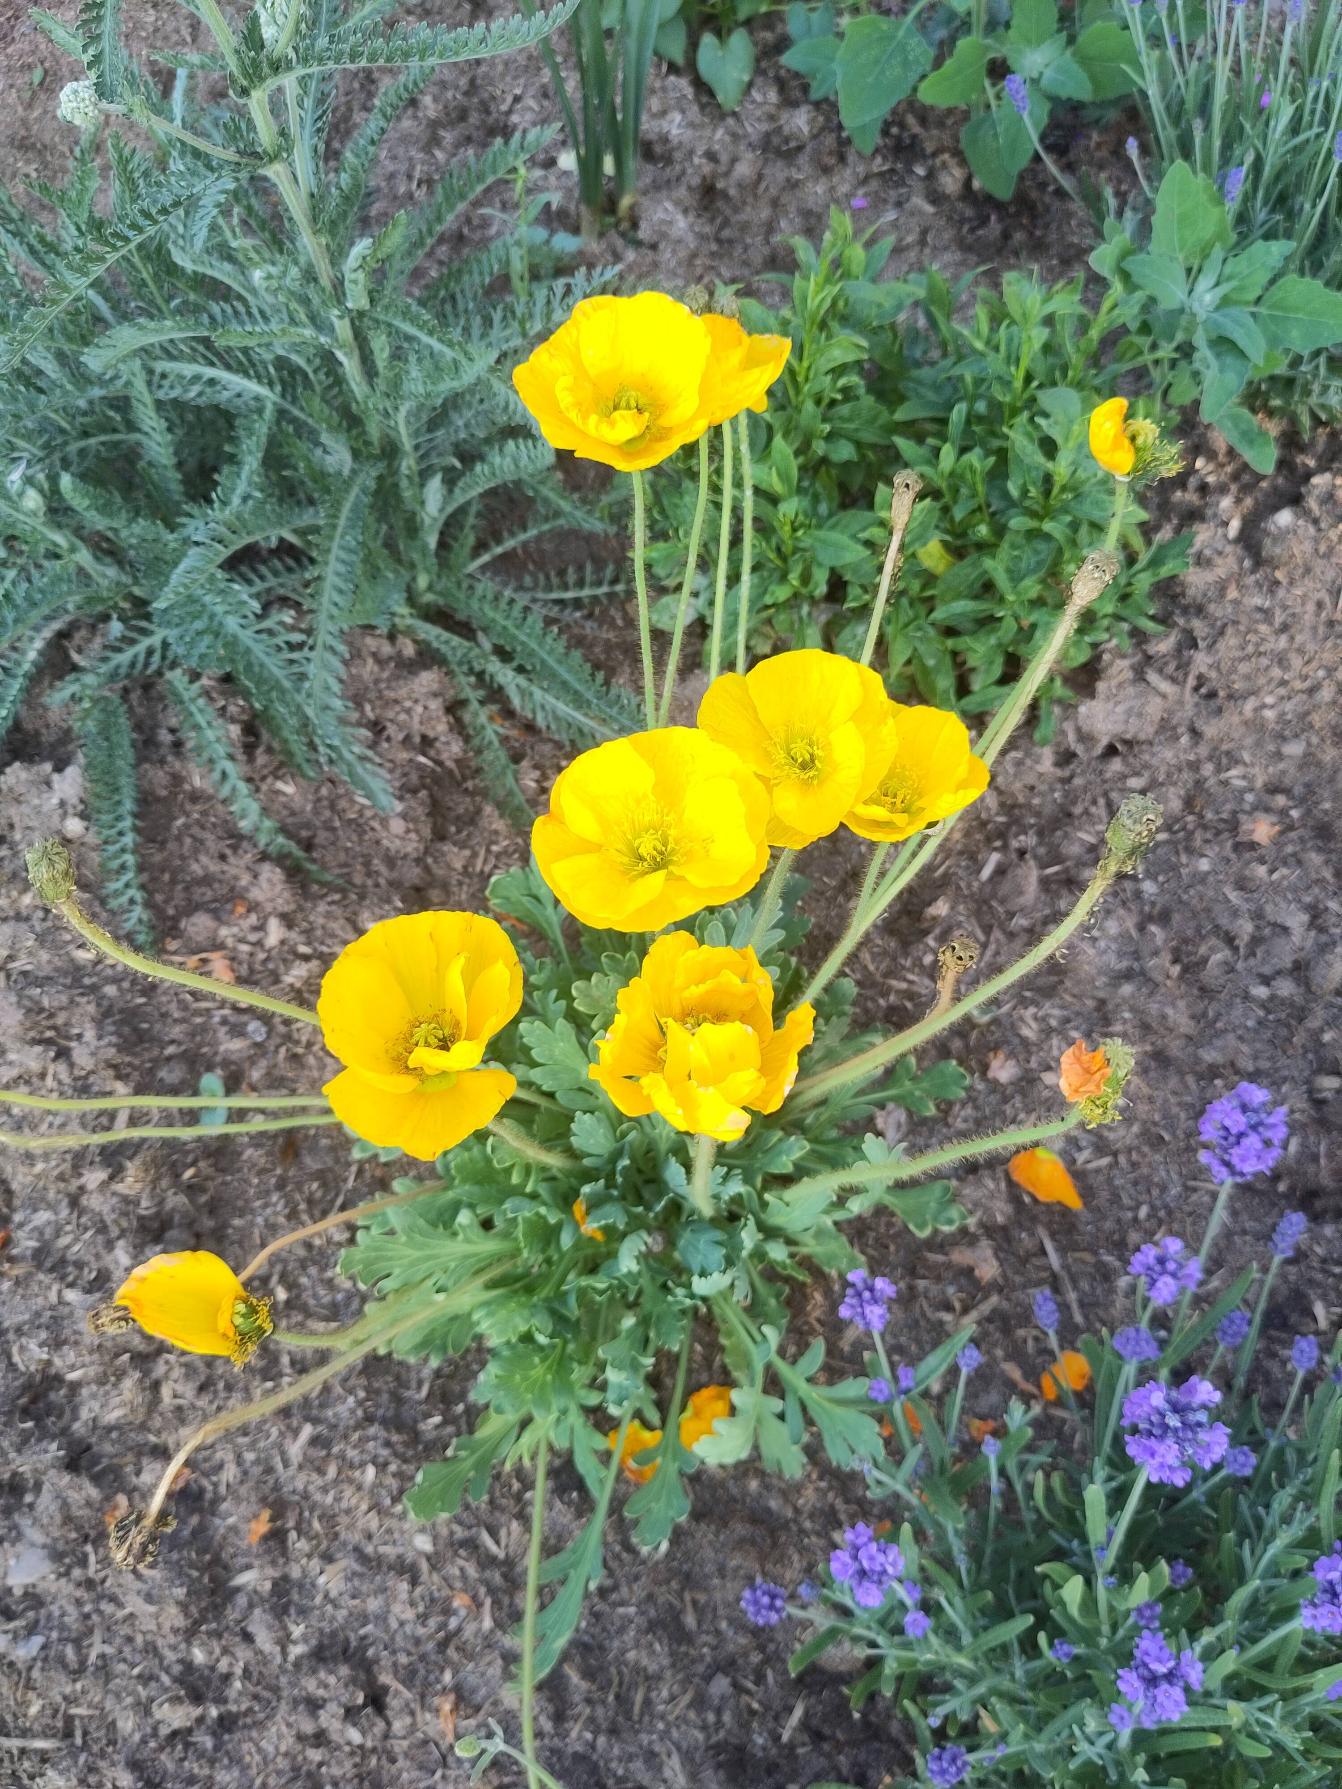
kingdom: Plantae
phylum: Tracheophyta
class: Magnoliopsida
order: Ranunculales
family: Papaveraceae
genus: Papaver
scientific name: Papaver croceum
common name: Sibirisk valmue
